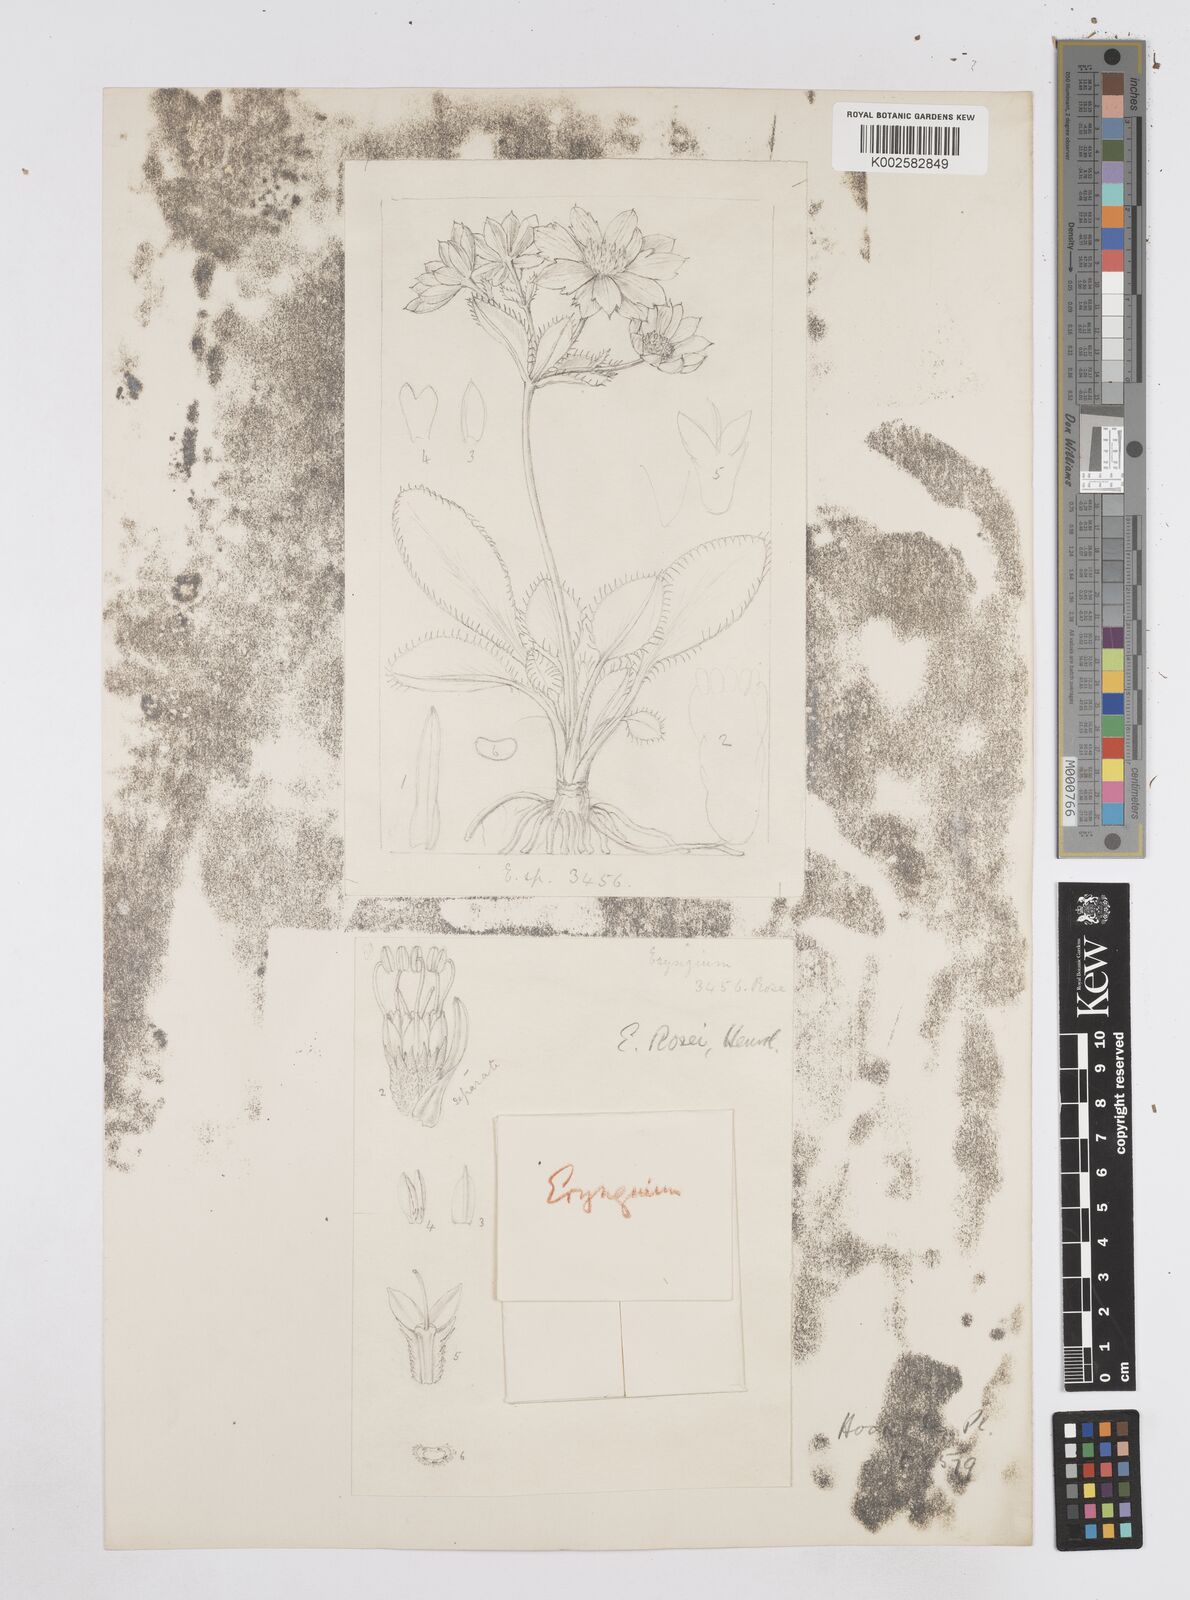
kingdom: Plantae
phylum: Tracheophyta
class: Magnoliopsida
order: Apiales
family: Apiaceae
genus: Eryngium
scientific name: Eryngium rosei
